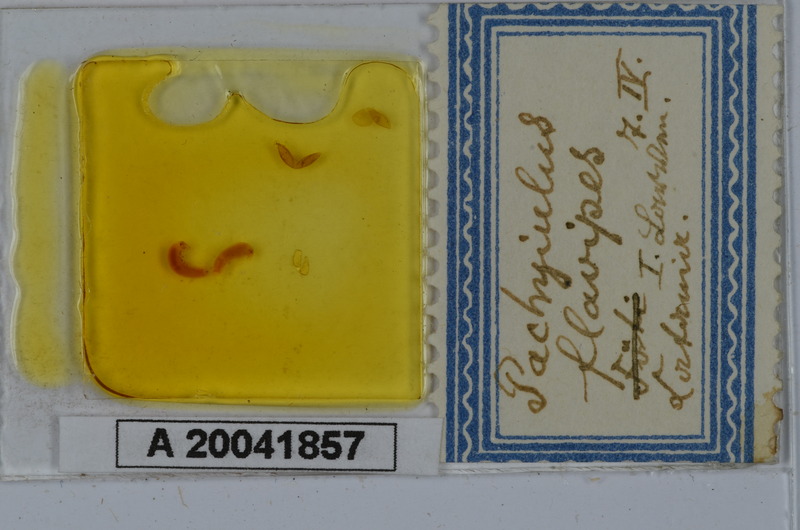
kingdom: Animalia
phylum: Arthropoda
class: Diplopoda
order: Julida
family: Julidae
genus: Pachyiulus
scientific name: Pachyiulus flavipes
